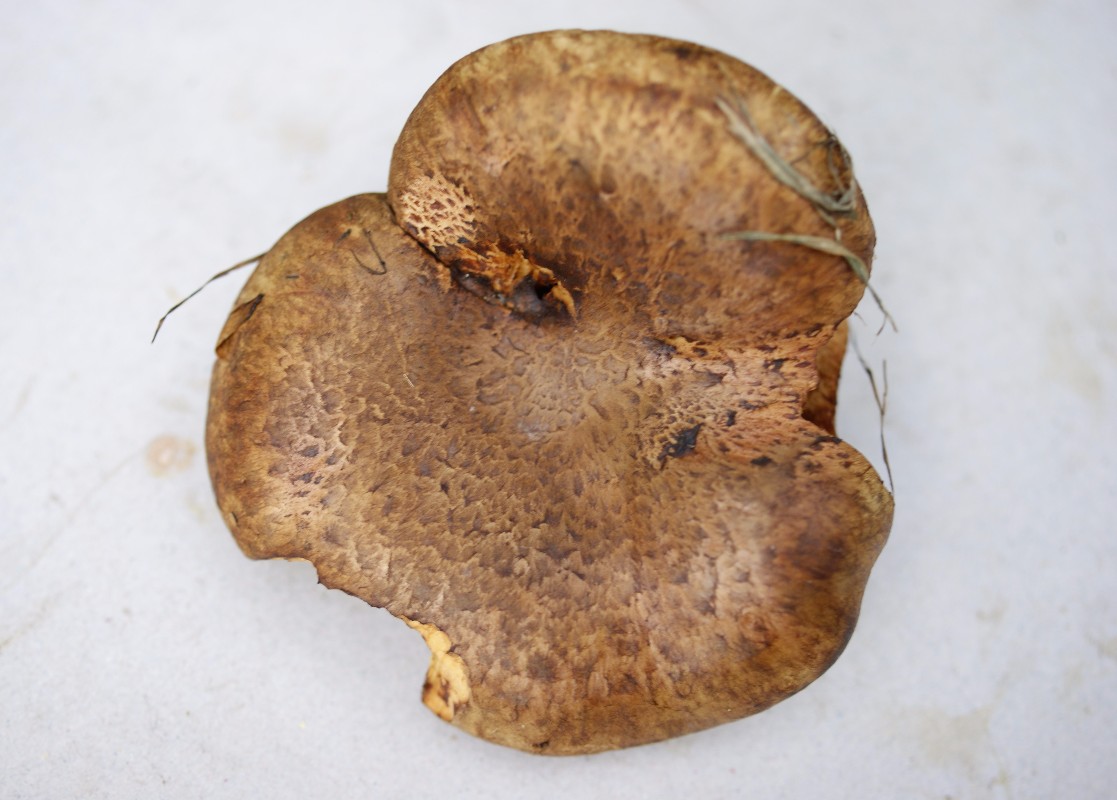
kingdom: Fungi
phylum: Basidiomycota
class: Agaricomycetes
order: Boletales
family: Paxillaceae
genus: Paxillus
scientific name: Paxillus rubicundulus
